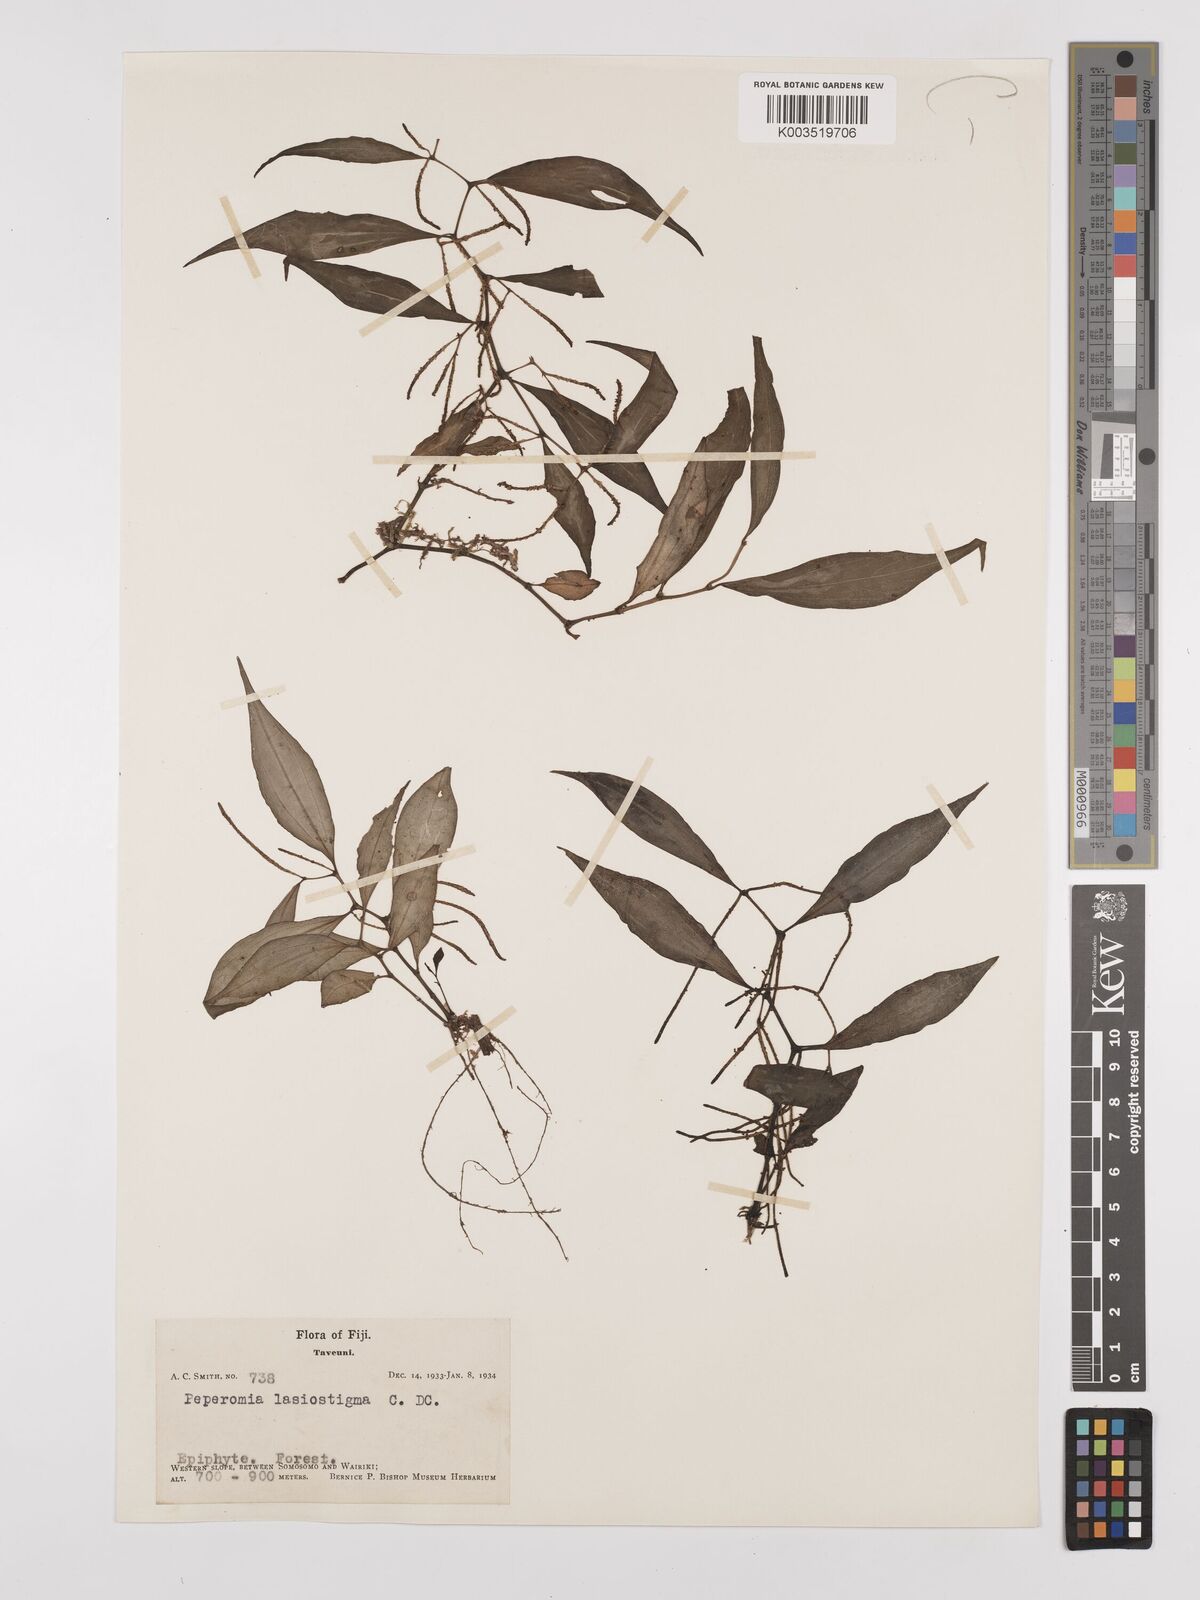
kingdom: Plantae
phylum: Tracheophyta
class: Magnoliopsida
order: Piperales
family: Piperaceae
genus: Peperomia
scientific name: Peperomia lasiostigma
